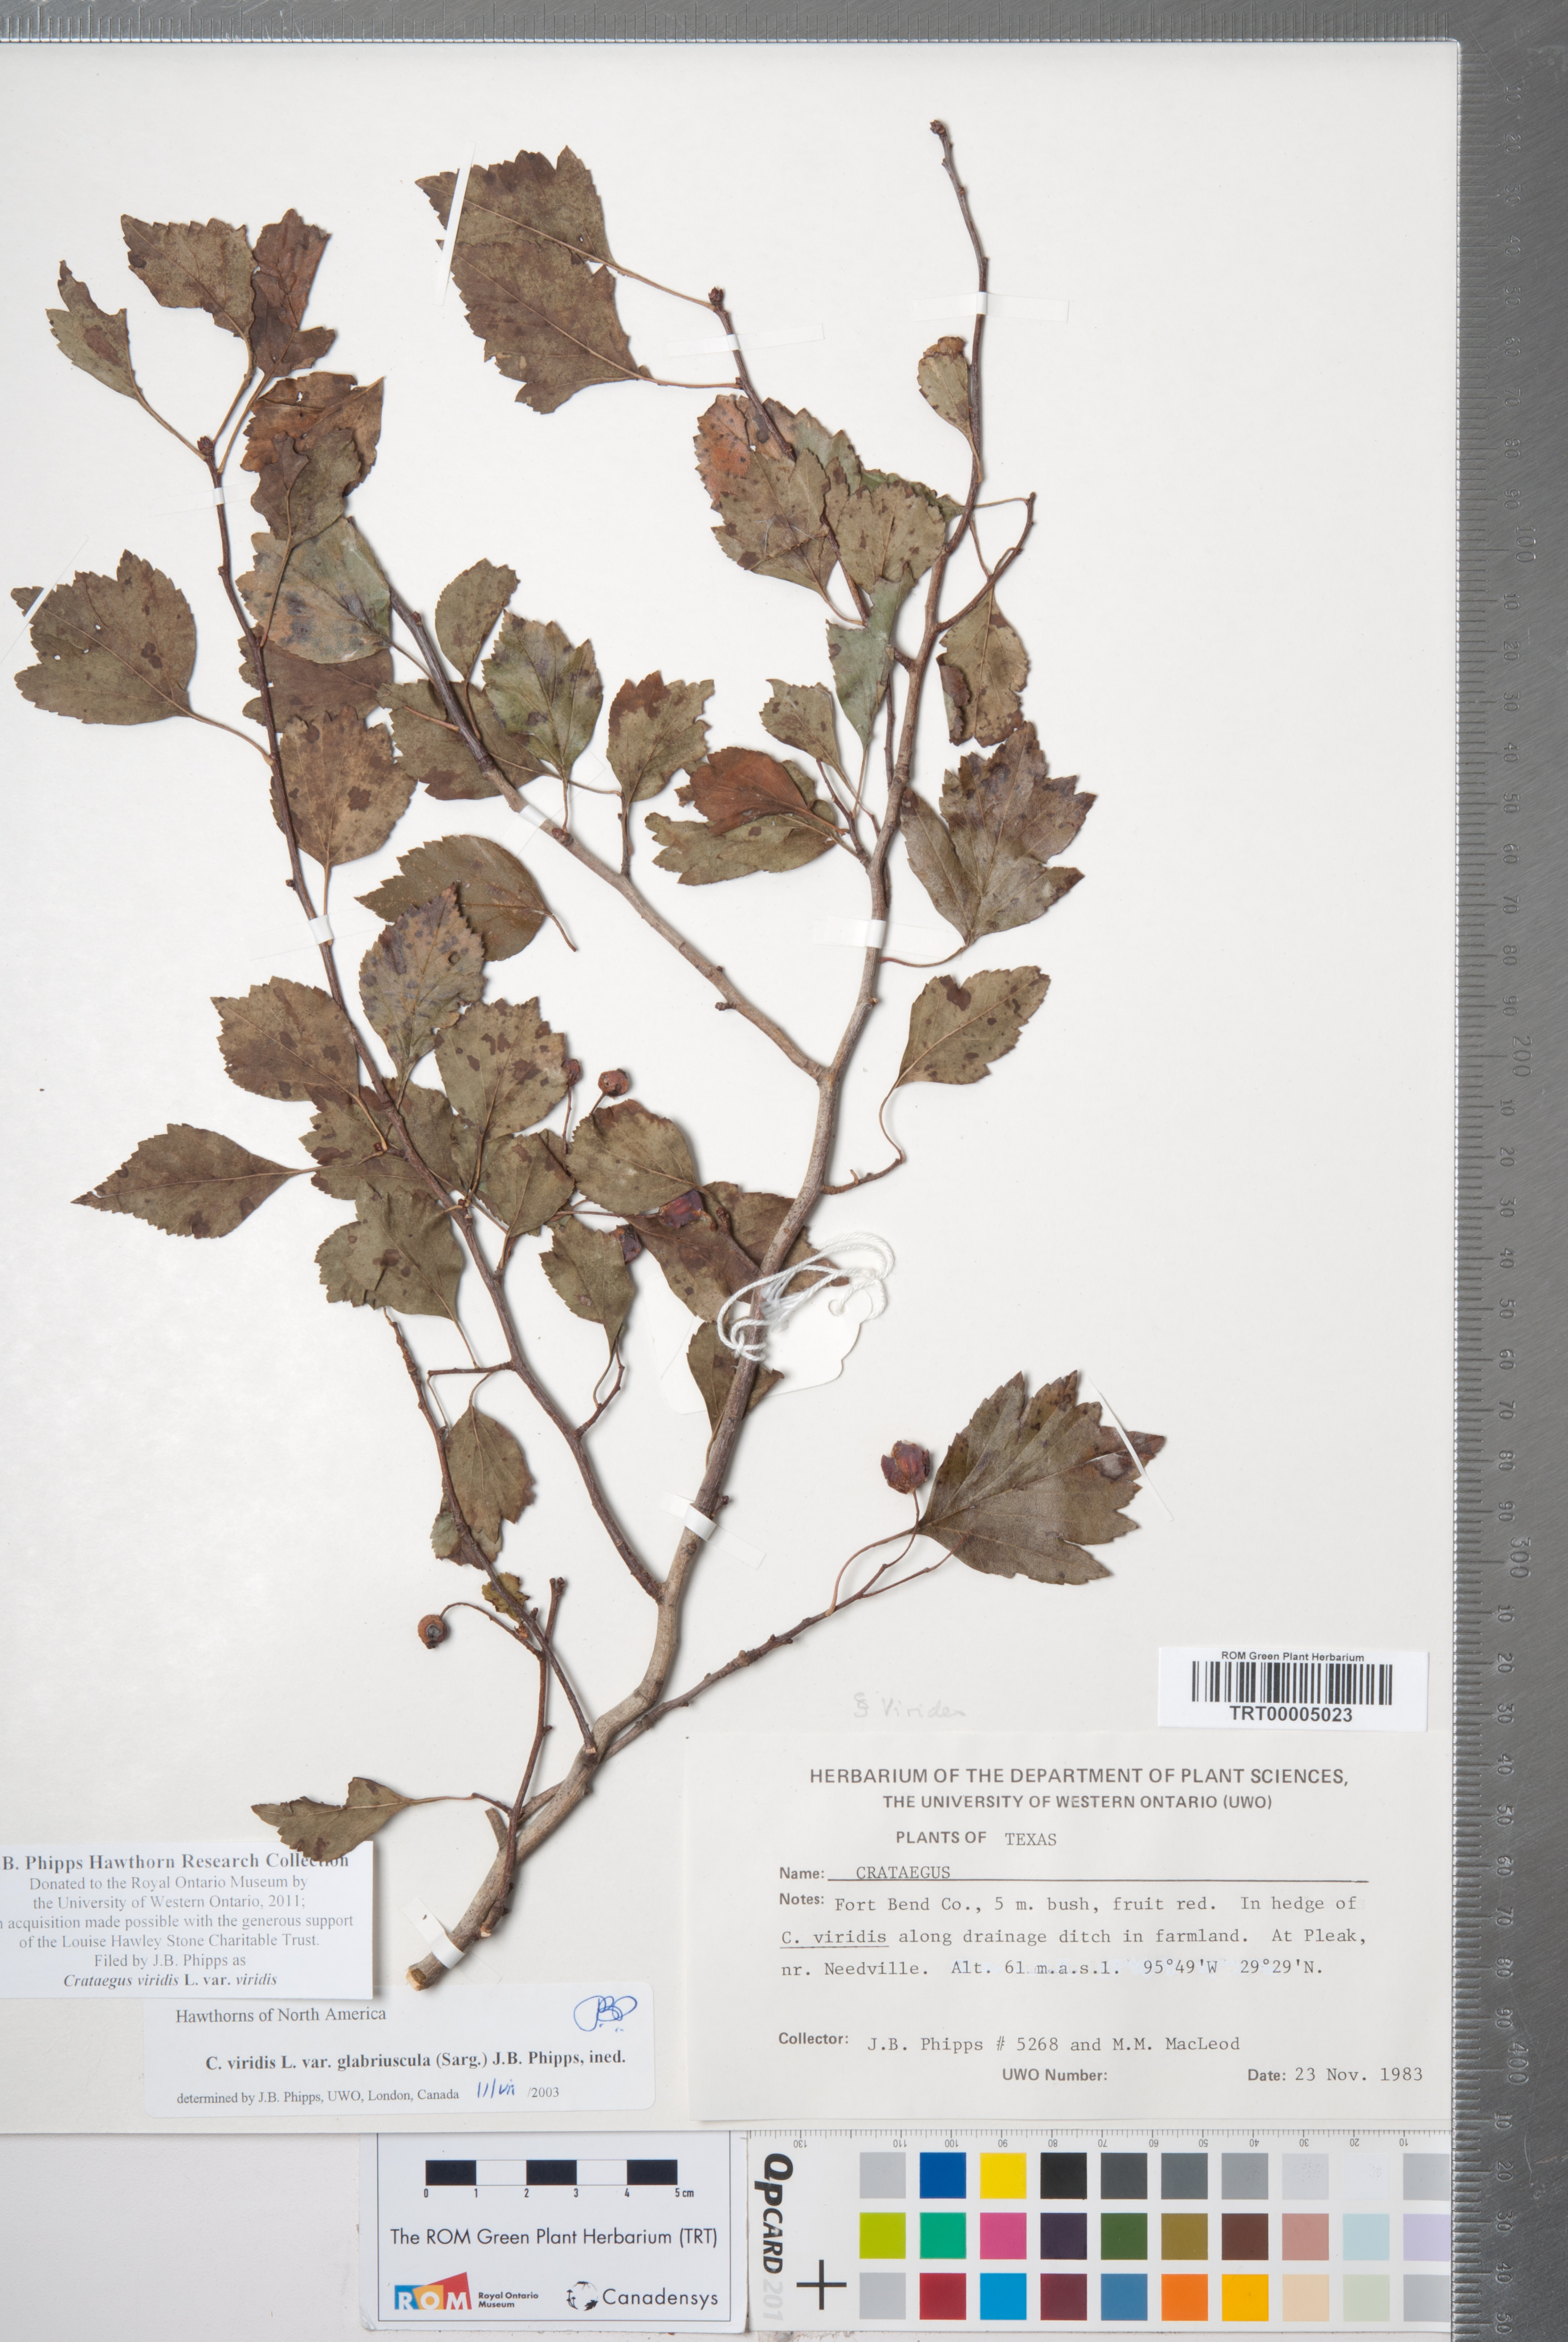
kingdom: Plantae
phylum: Tracheophyta
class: Magnoliopsida
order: Rosales
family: Rosaceae
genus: Crataegus
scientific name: Crataegus viridis
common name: Southernthorn
